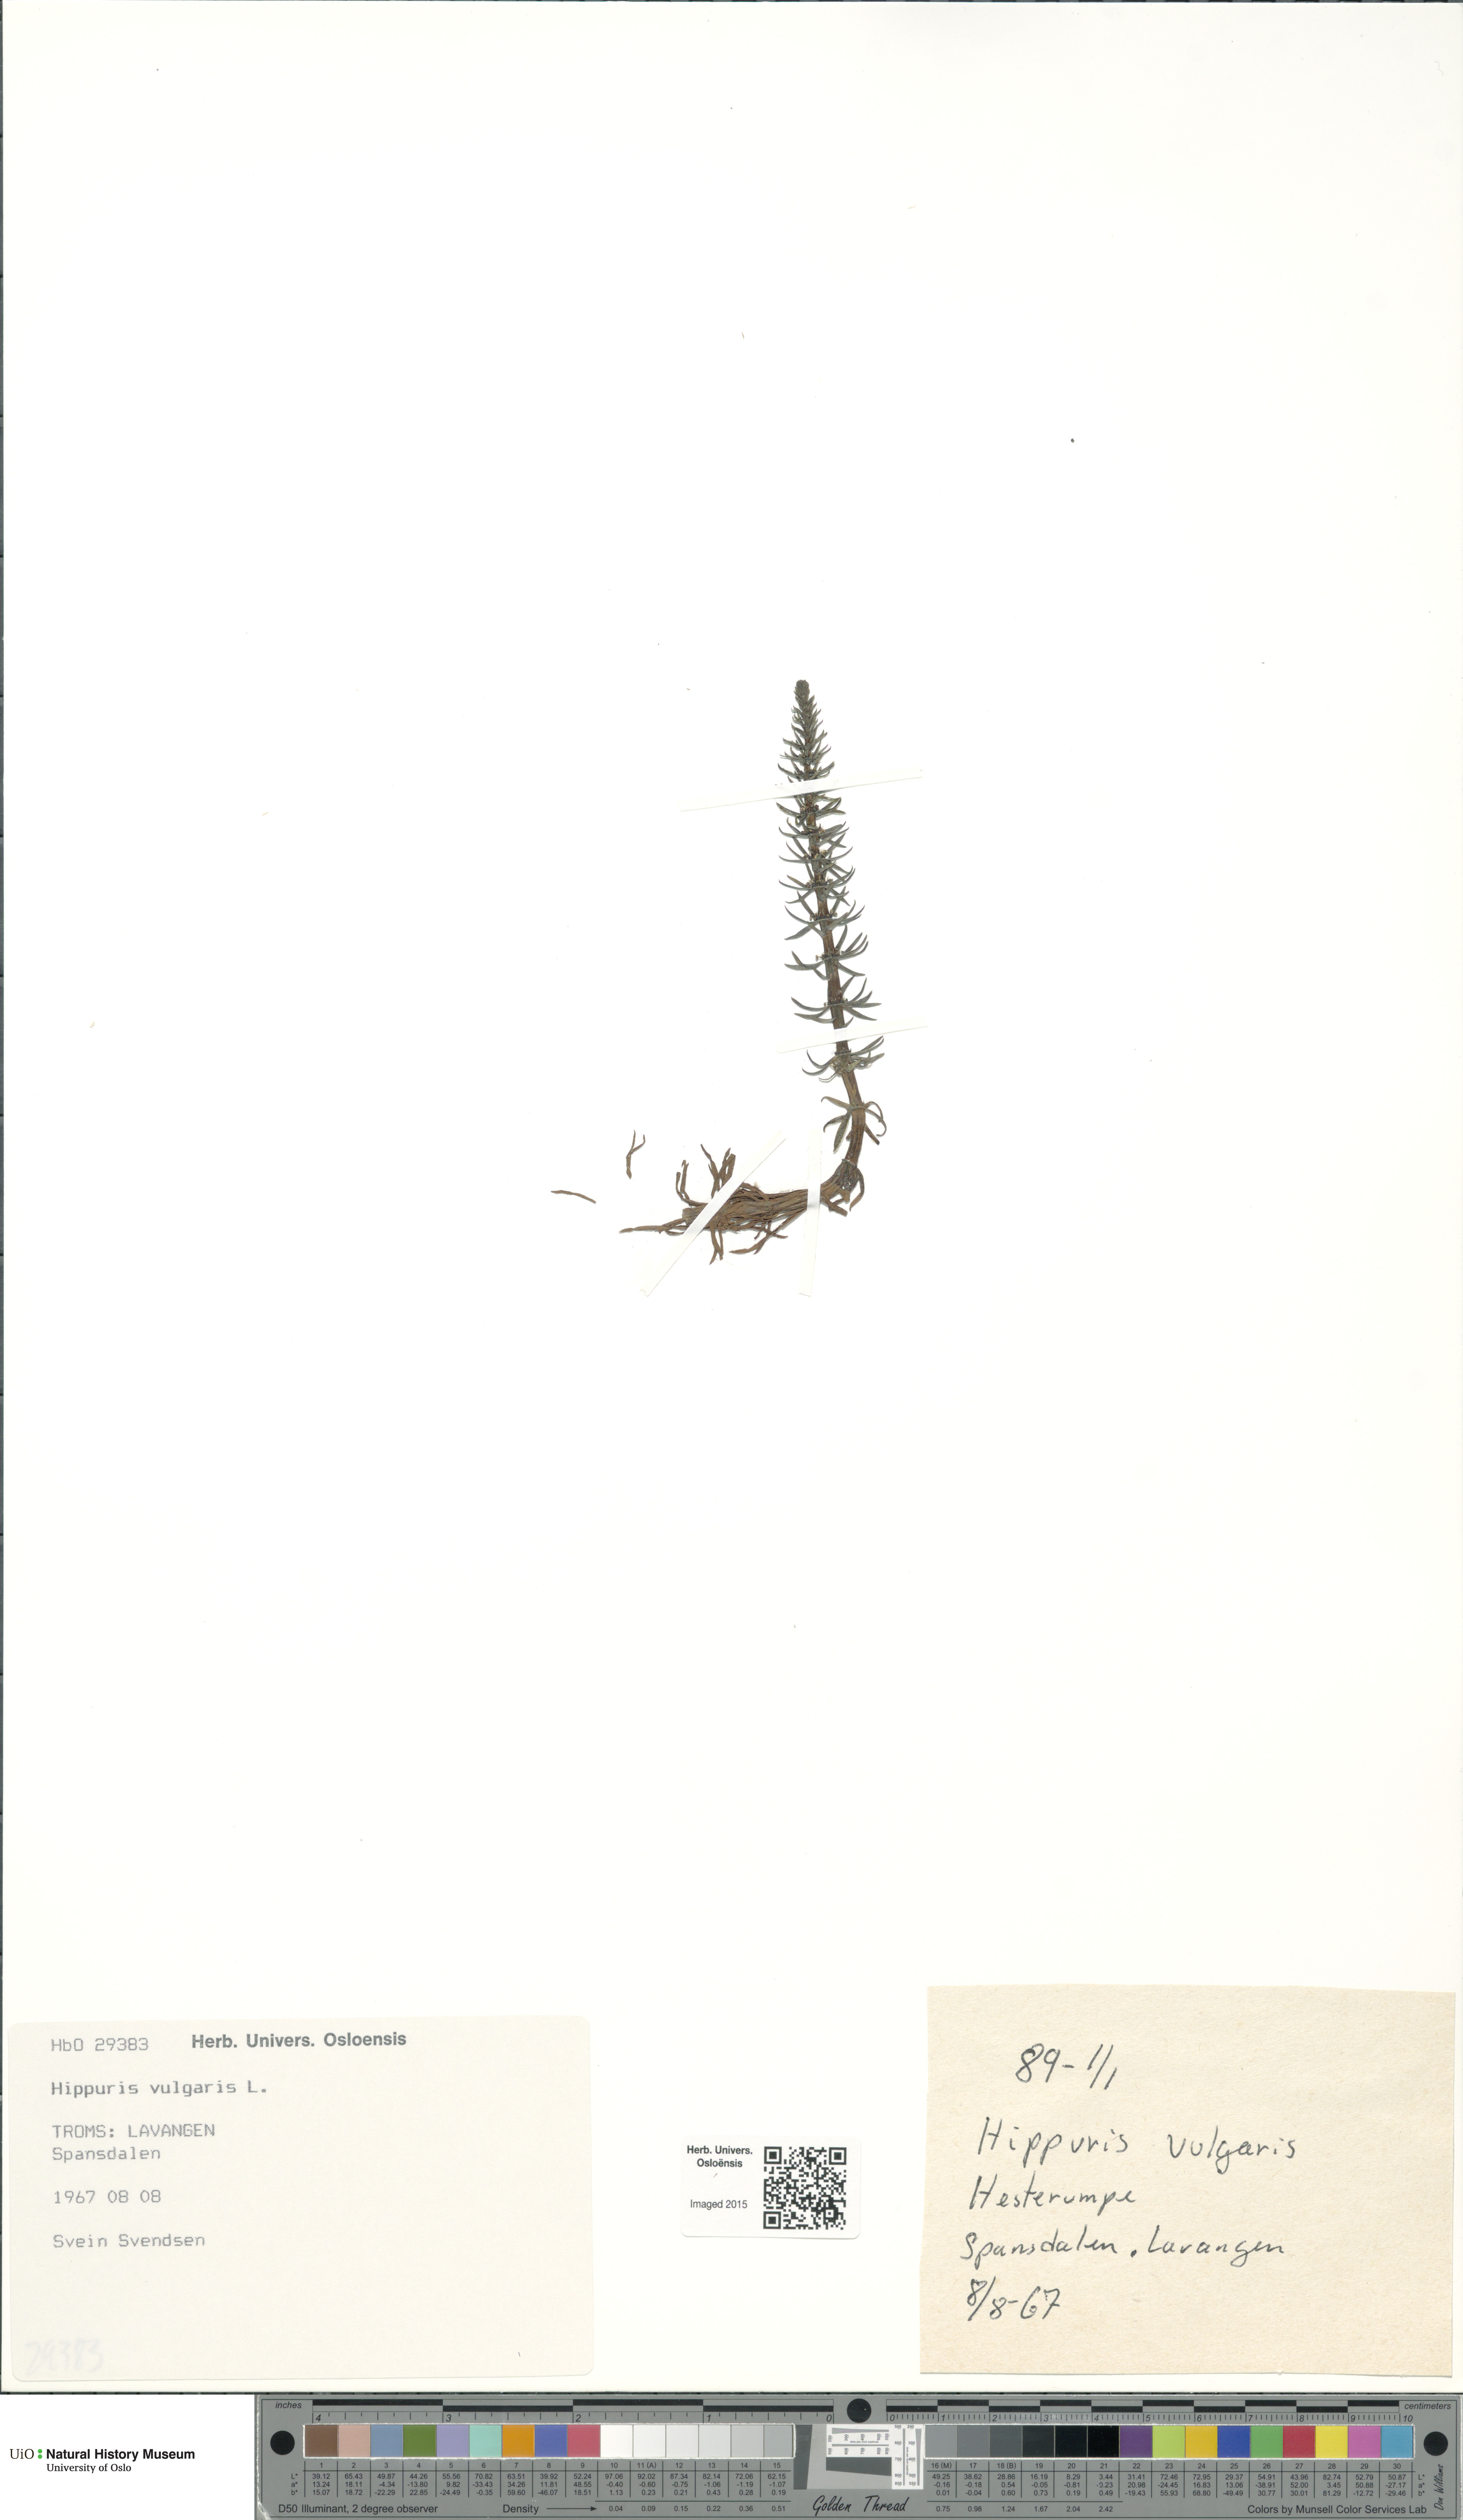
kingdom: Plantae
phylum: Tracheophyta
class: Magnoliopsida
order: Lamiales
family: Plantaginaceae
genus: Hippuris
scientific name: Hippuris vulgaris
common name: Mare's-tail
